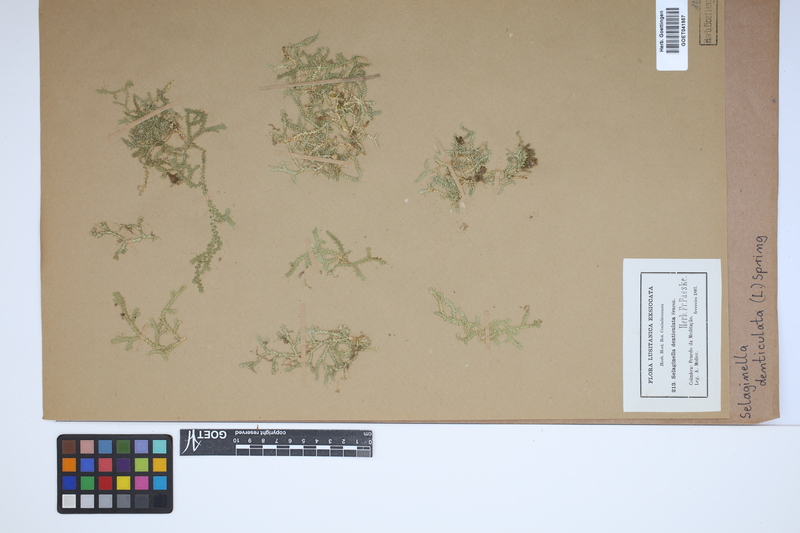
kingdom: Plantae
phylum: Tracheophyta
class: Lycopodiopsida
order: Selaginellales
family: Selaginellaceae
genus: Selaginella
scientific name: Selaginella denticulata
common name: Toothed-leaved clubmoss
